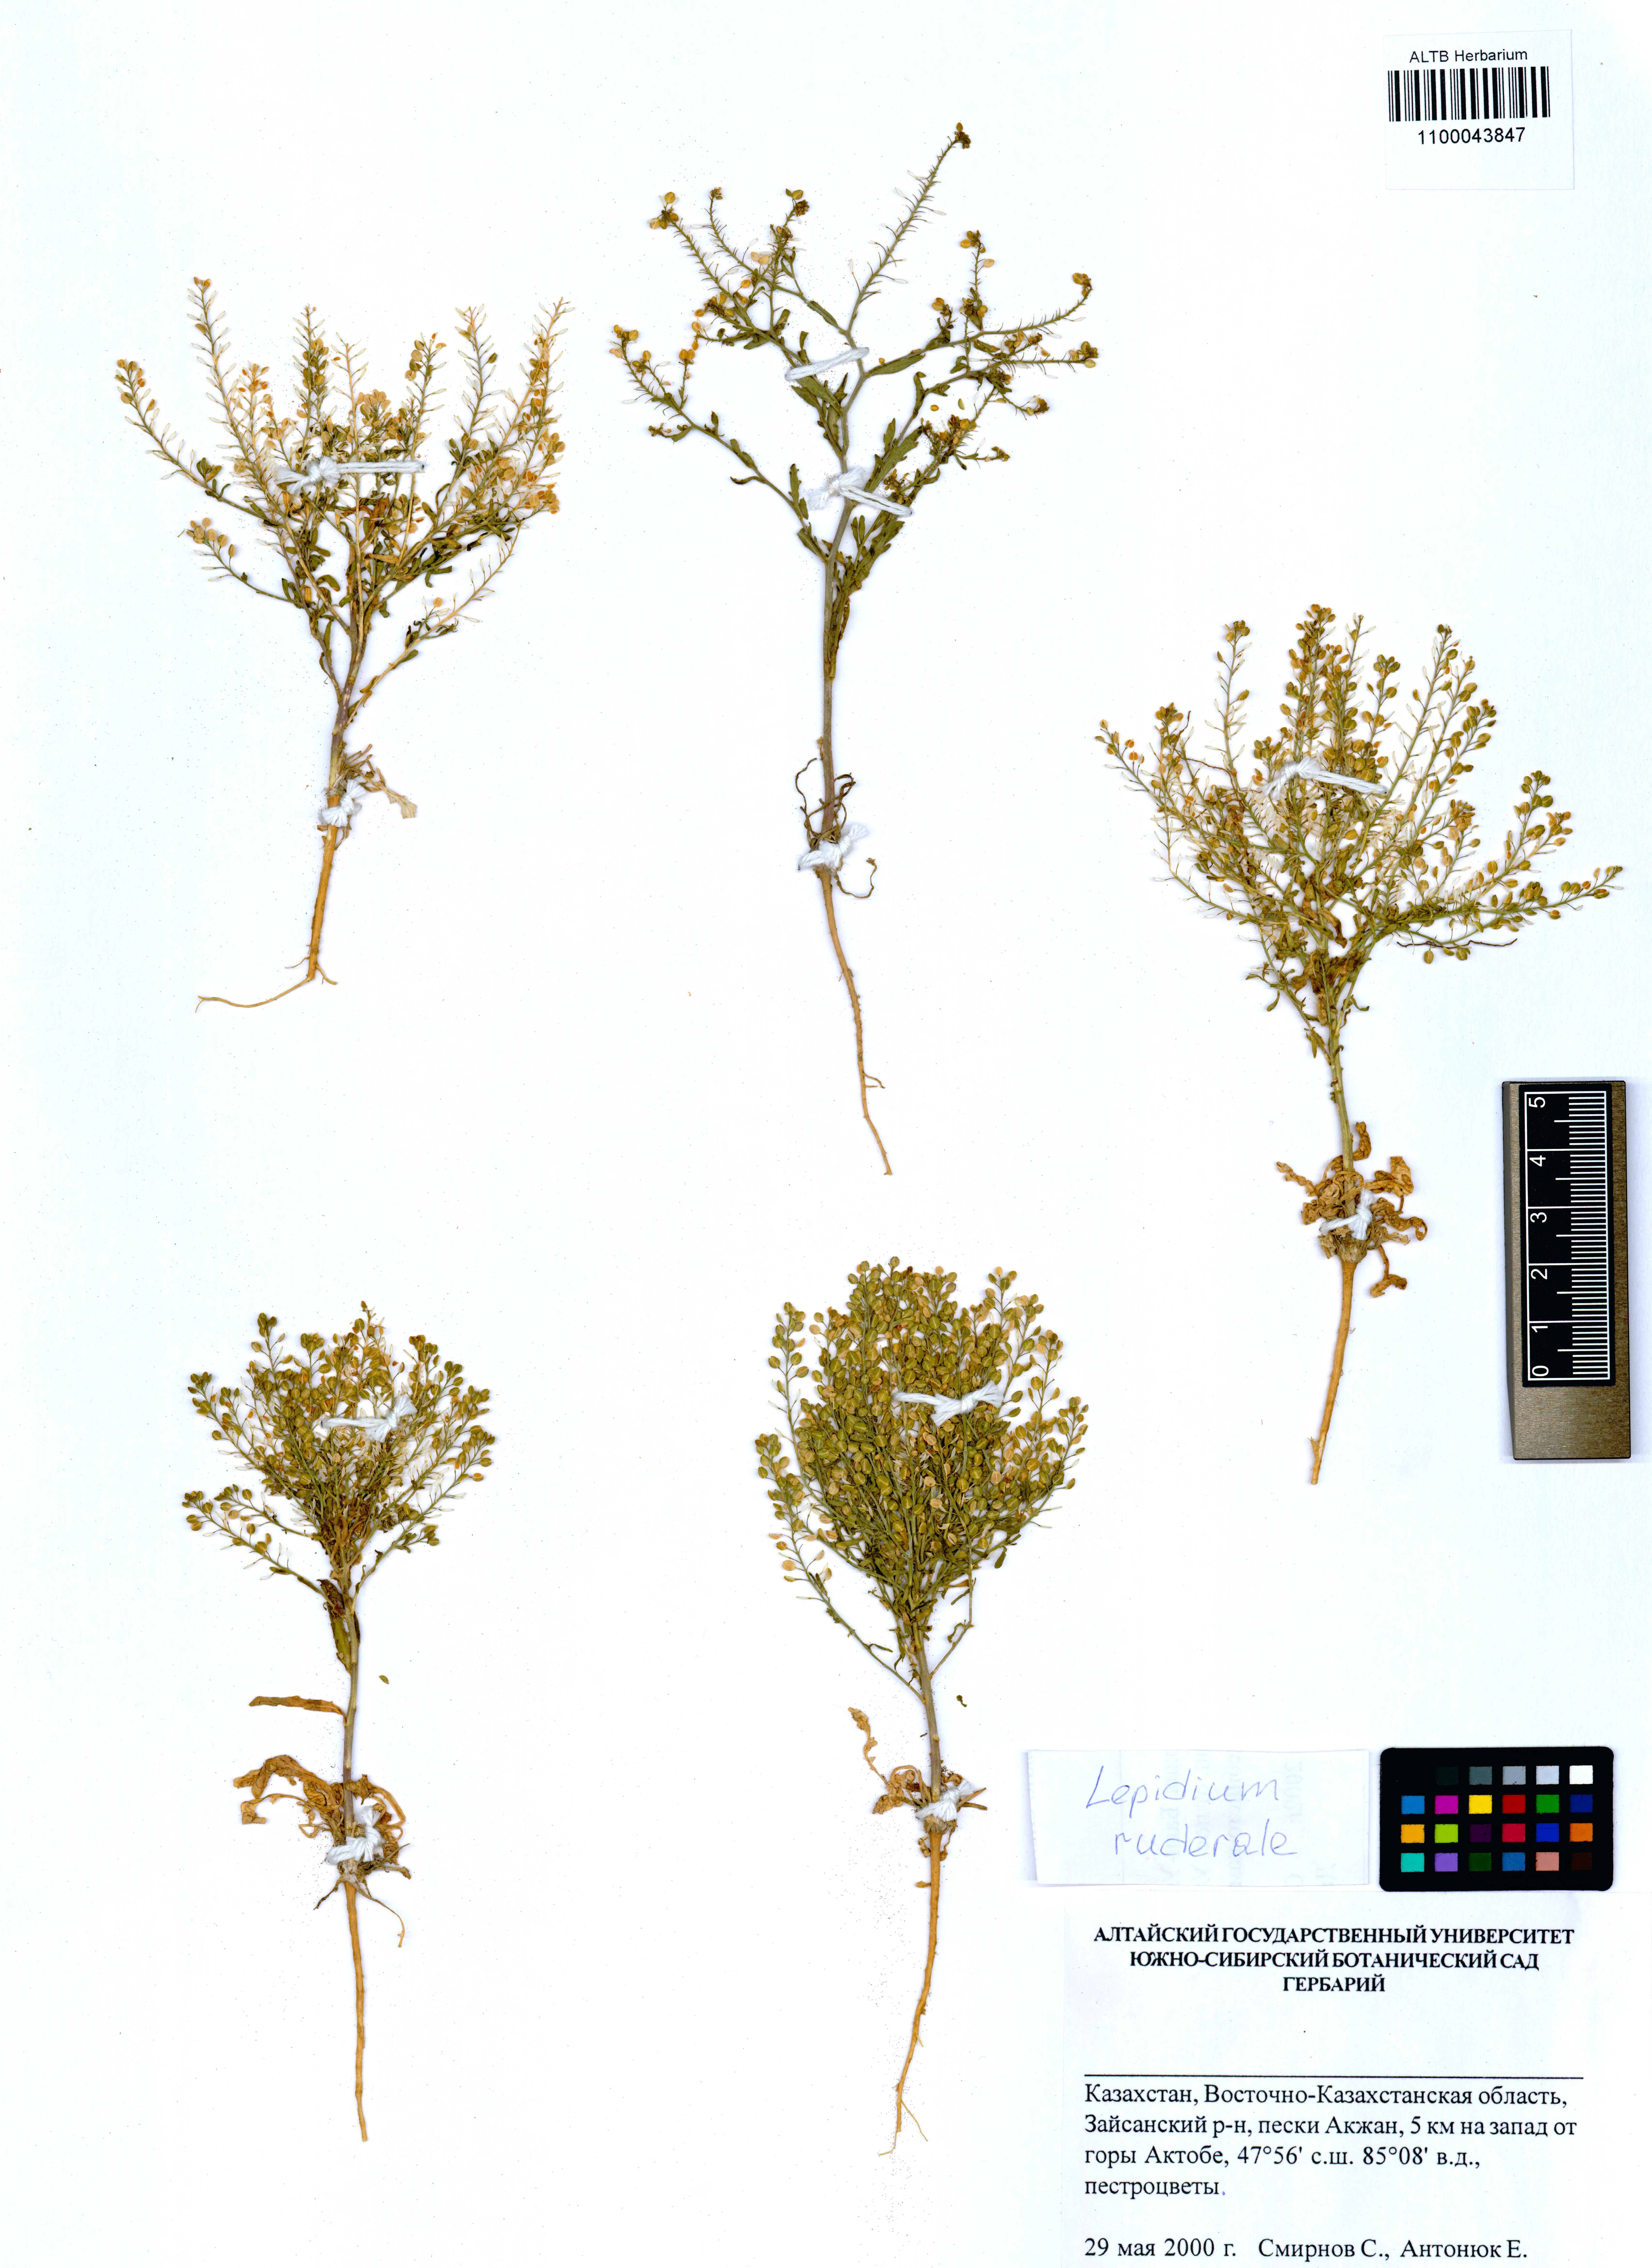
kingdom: Plantae
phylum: Tracheophyta
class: Magnoliopsida
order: Brassicales
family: Brassicaceae
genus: Lepidium
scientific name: Lepidium ruderale
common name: Narrow-leaved pepperwort
